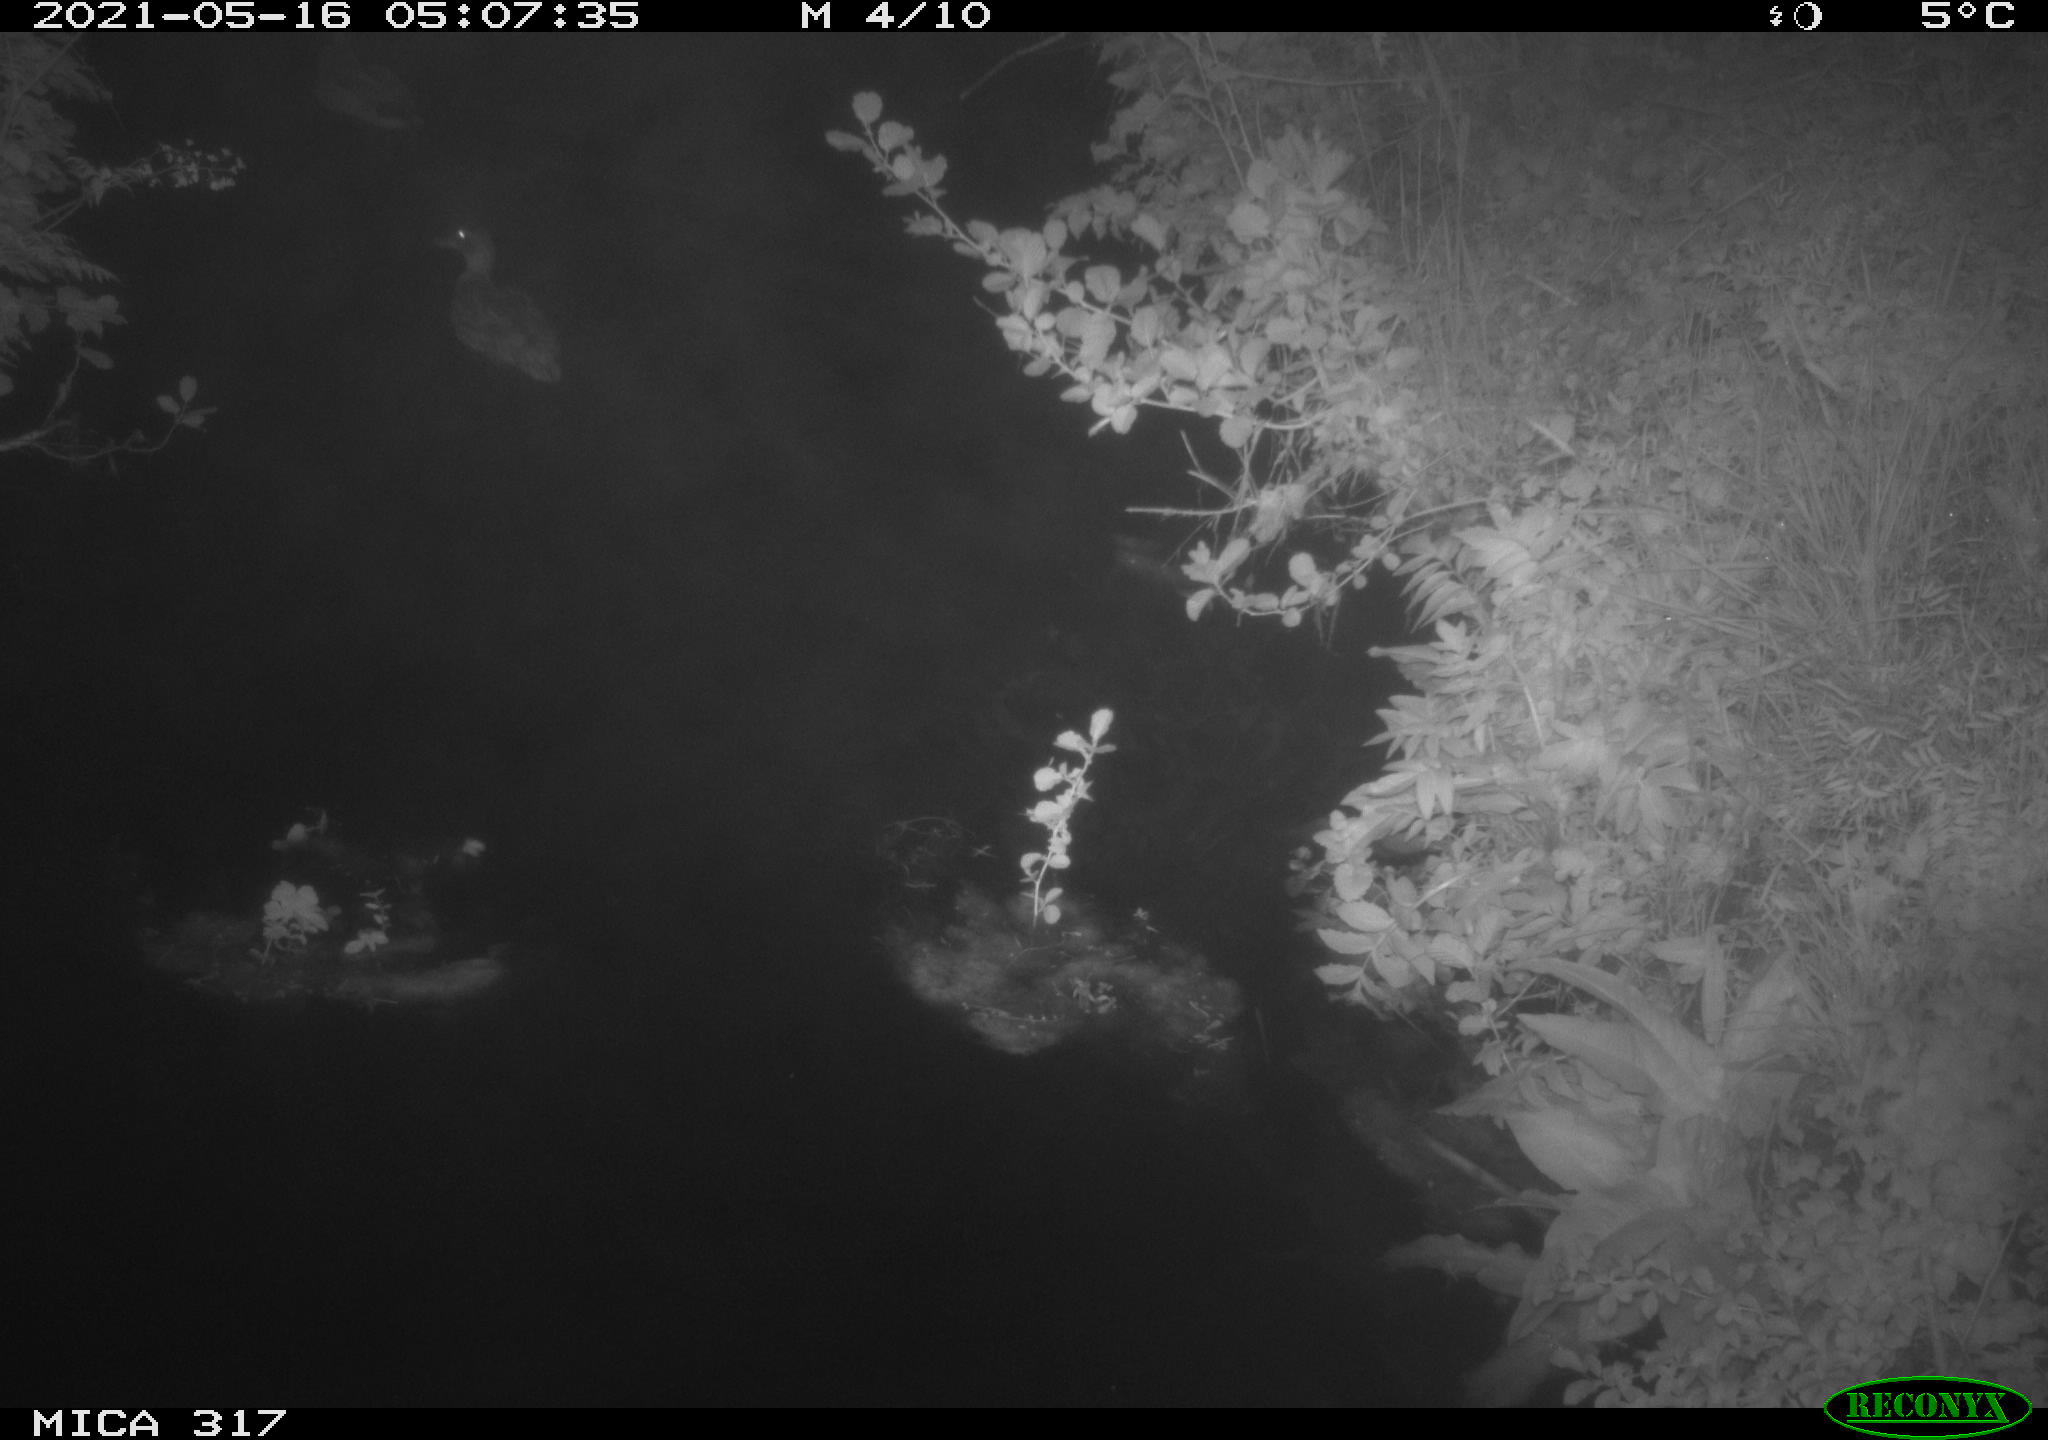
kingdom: Animalia
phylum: Chordata
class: Aves
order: Anseriformes
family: Anatidae
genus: Anas
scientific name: Anas
